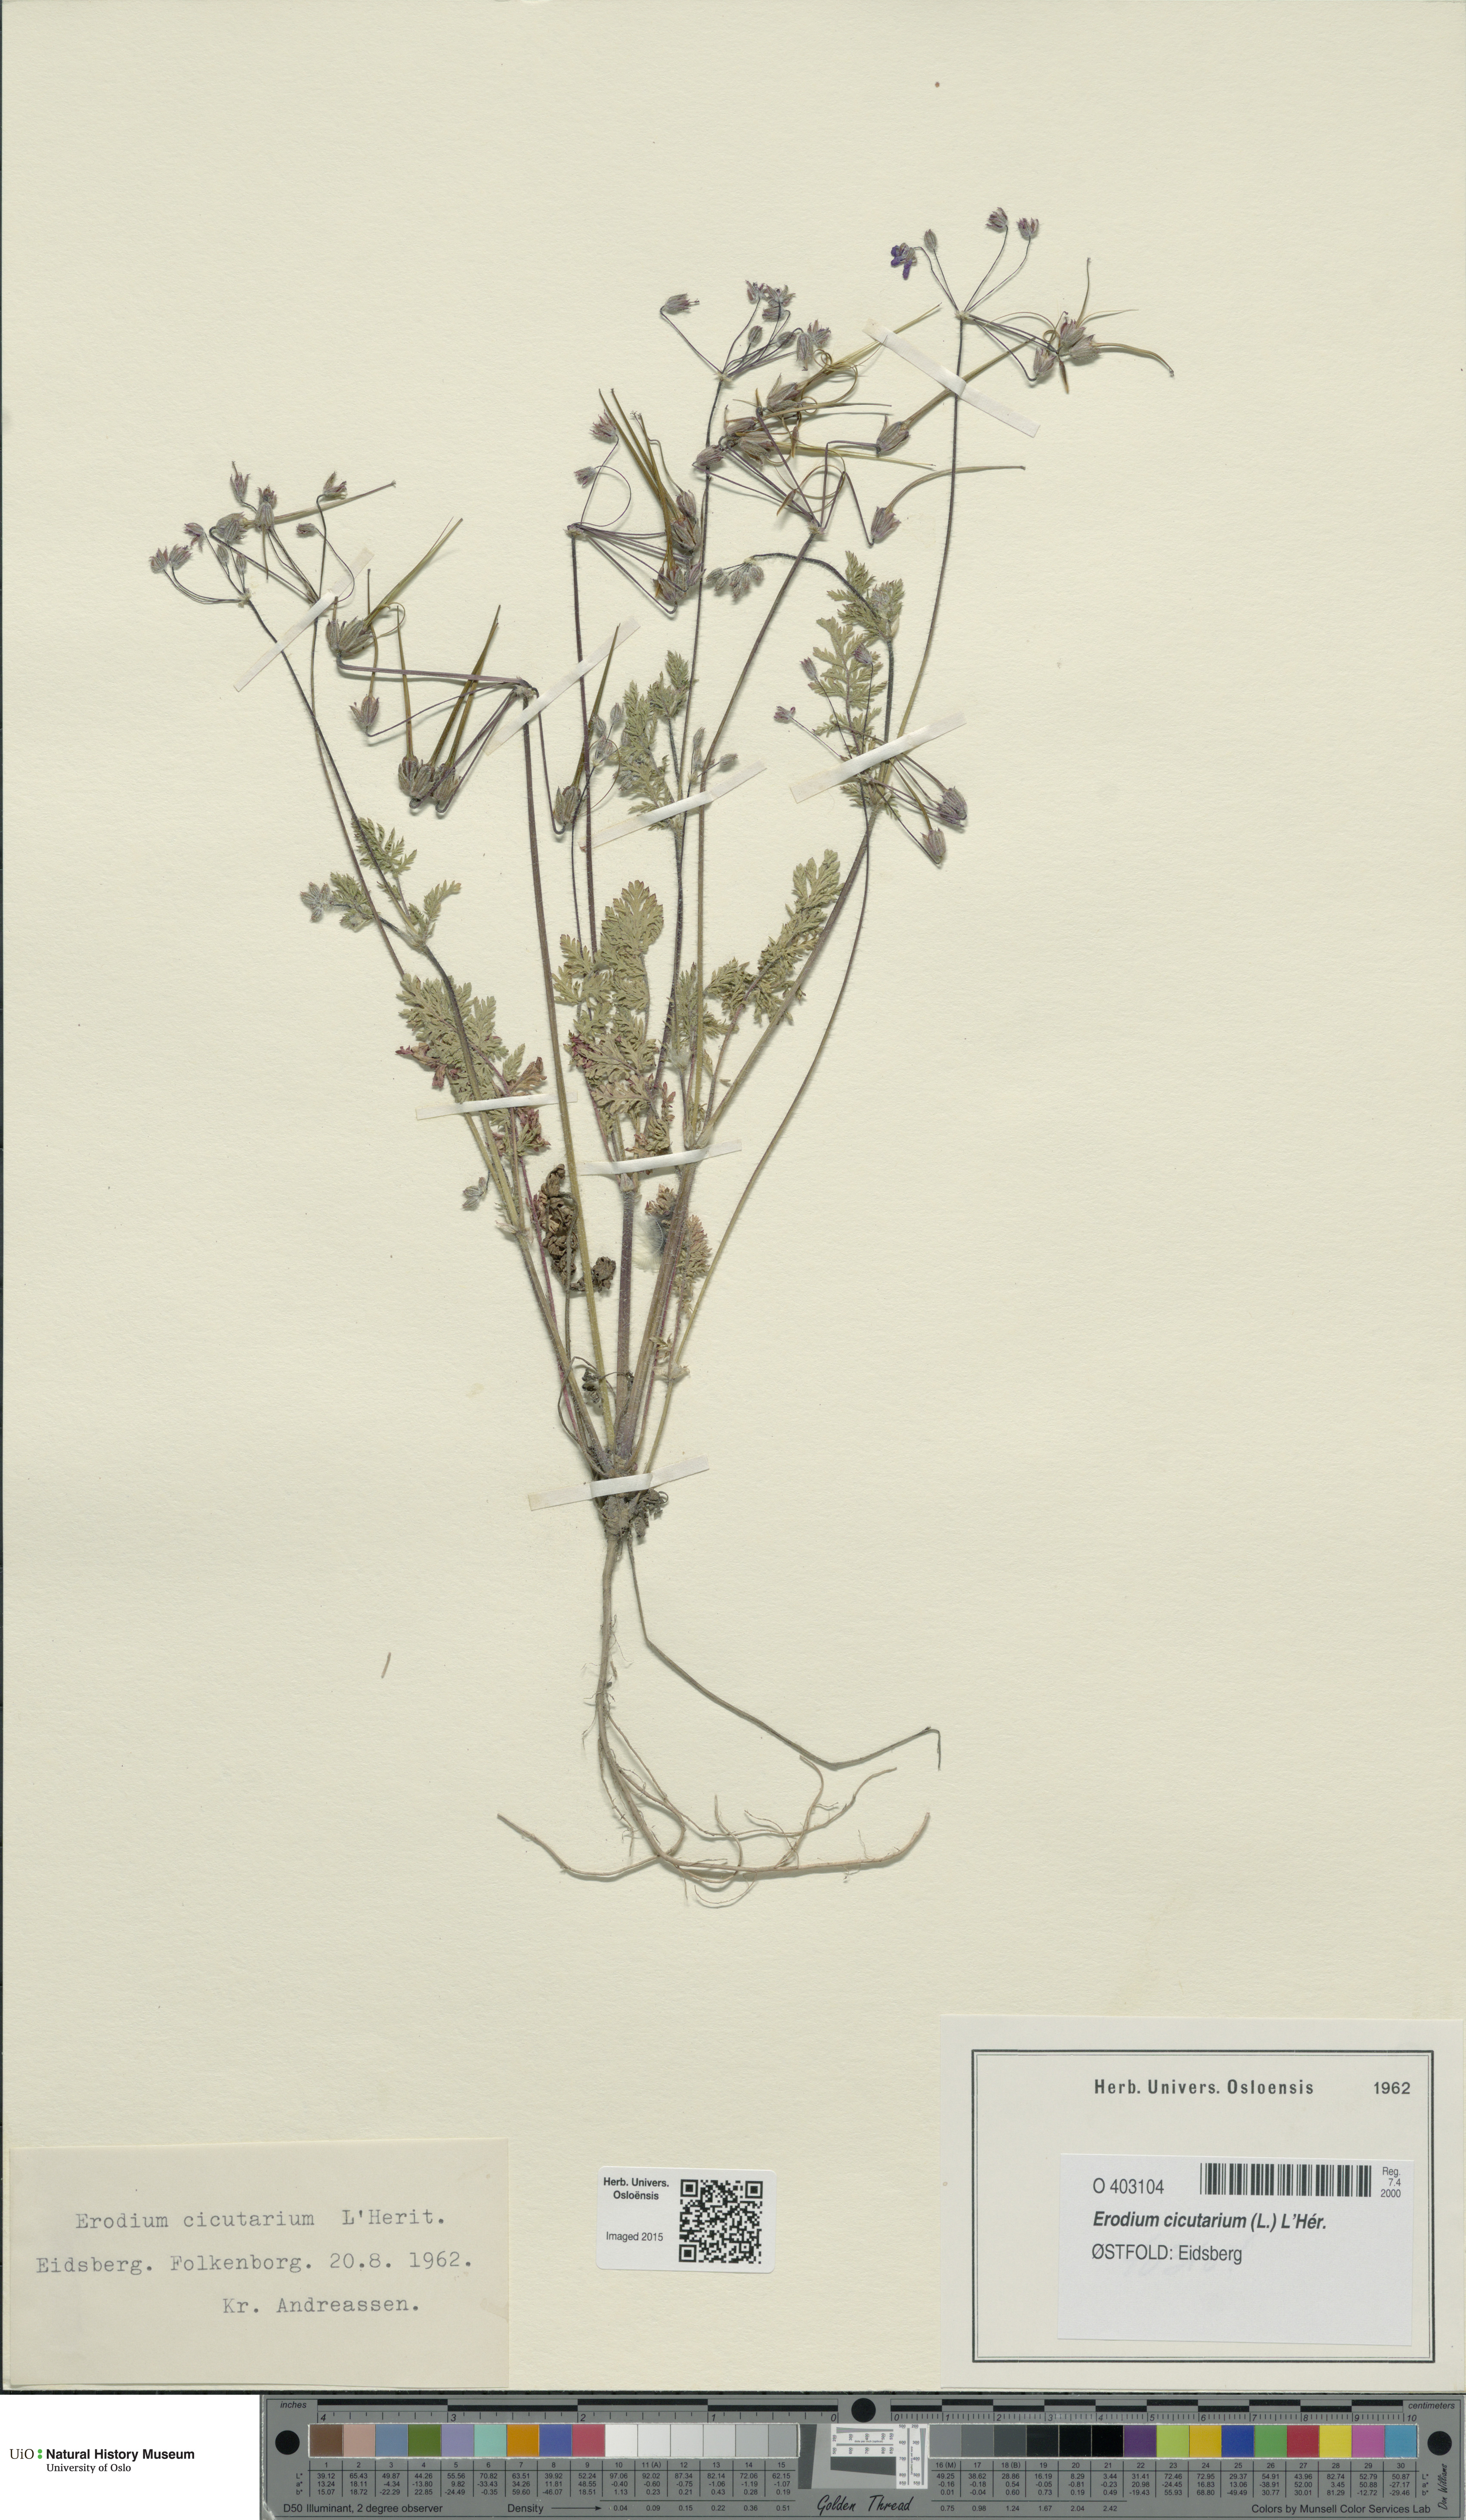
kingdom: Plantae
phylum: Tracheophyta
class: Magnoliopsida
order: Geraniales
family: Geraniaceae
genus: Erodium
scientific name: Erodium cicutarium
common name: Common stork's-bill
